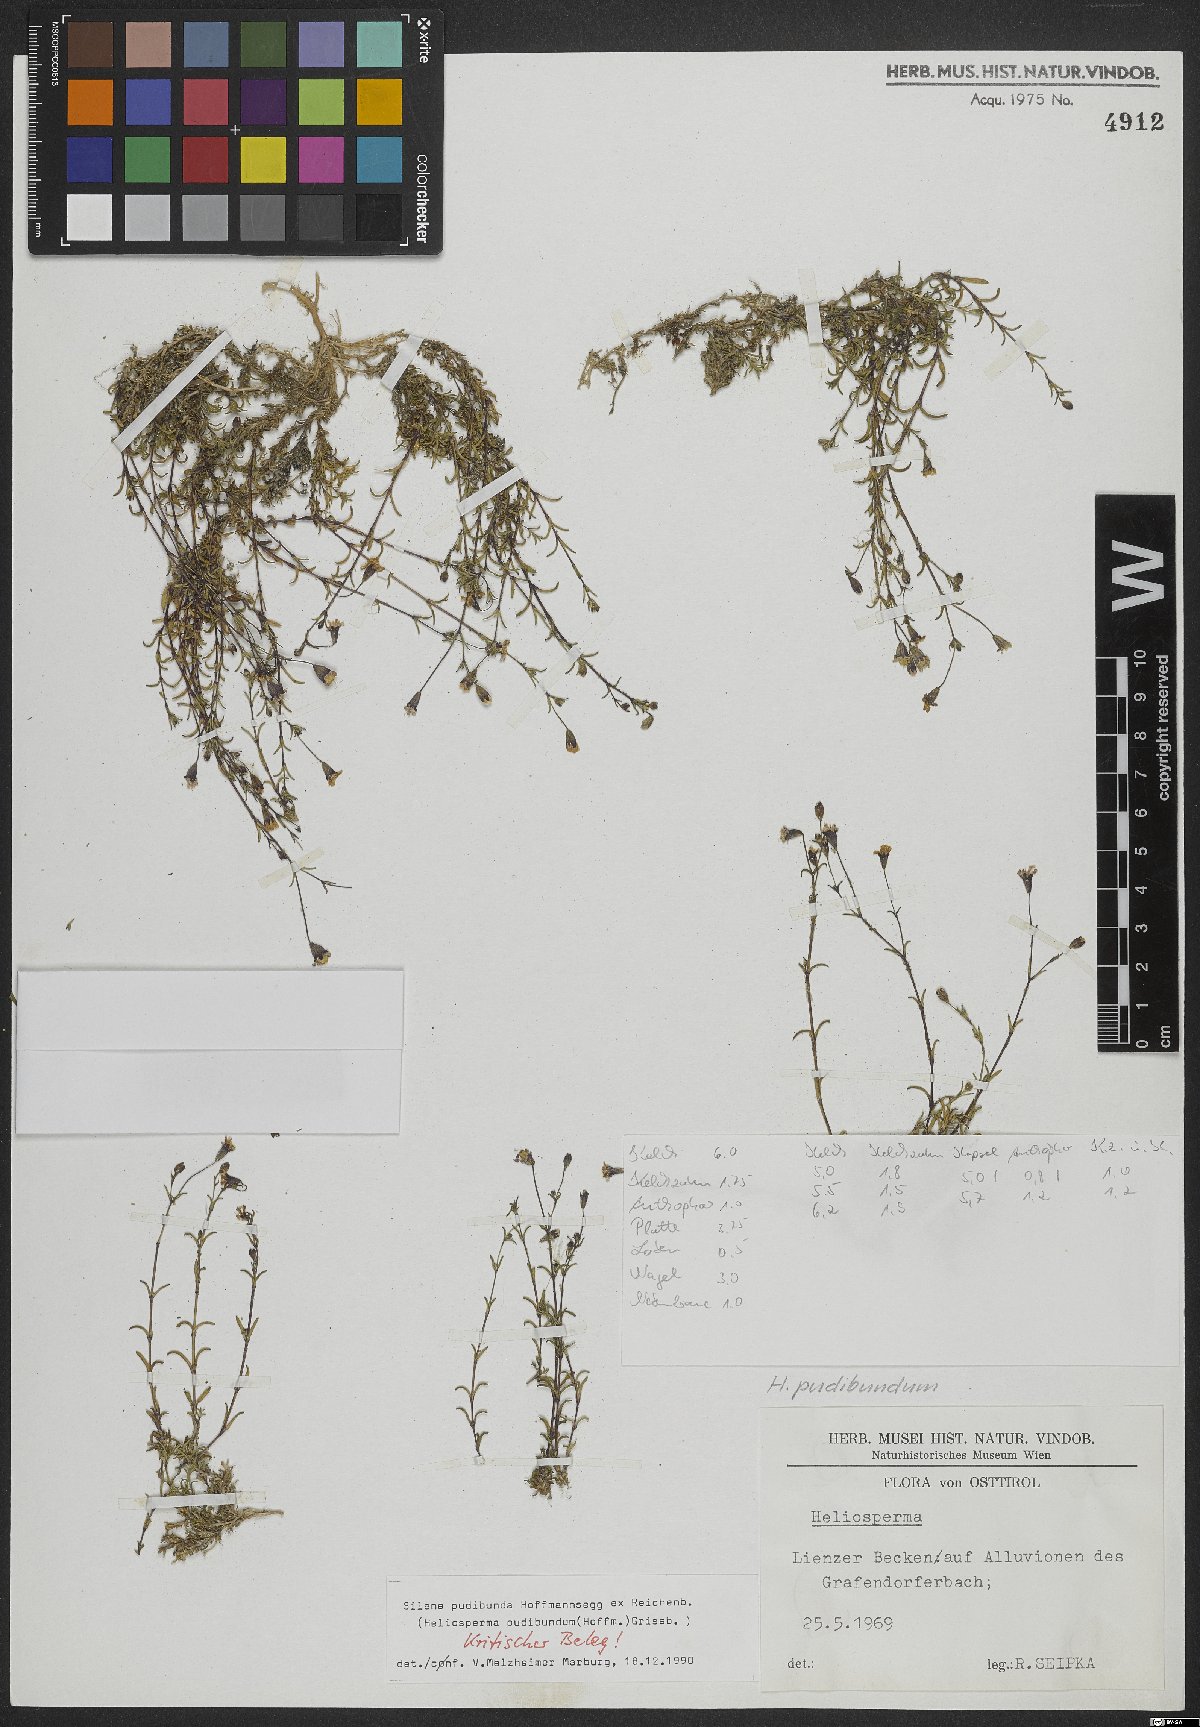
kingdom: Plantae
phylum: Tracheophyta
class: Magnoliopsida
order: Caryophyllales
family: Caryophyllaceae
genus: Heliosperma
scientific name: Heliosperma pudibundum
